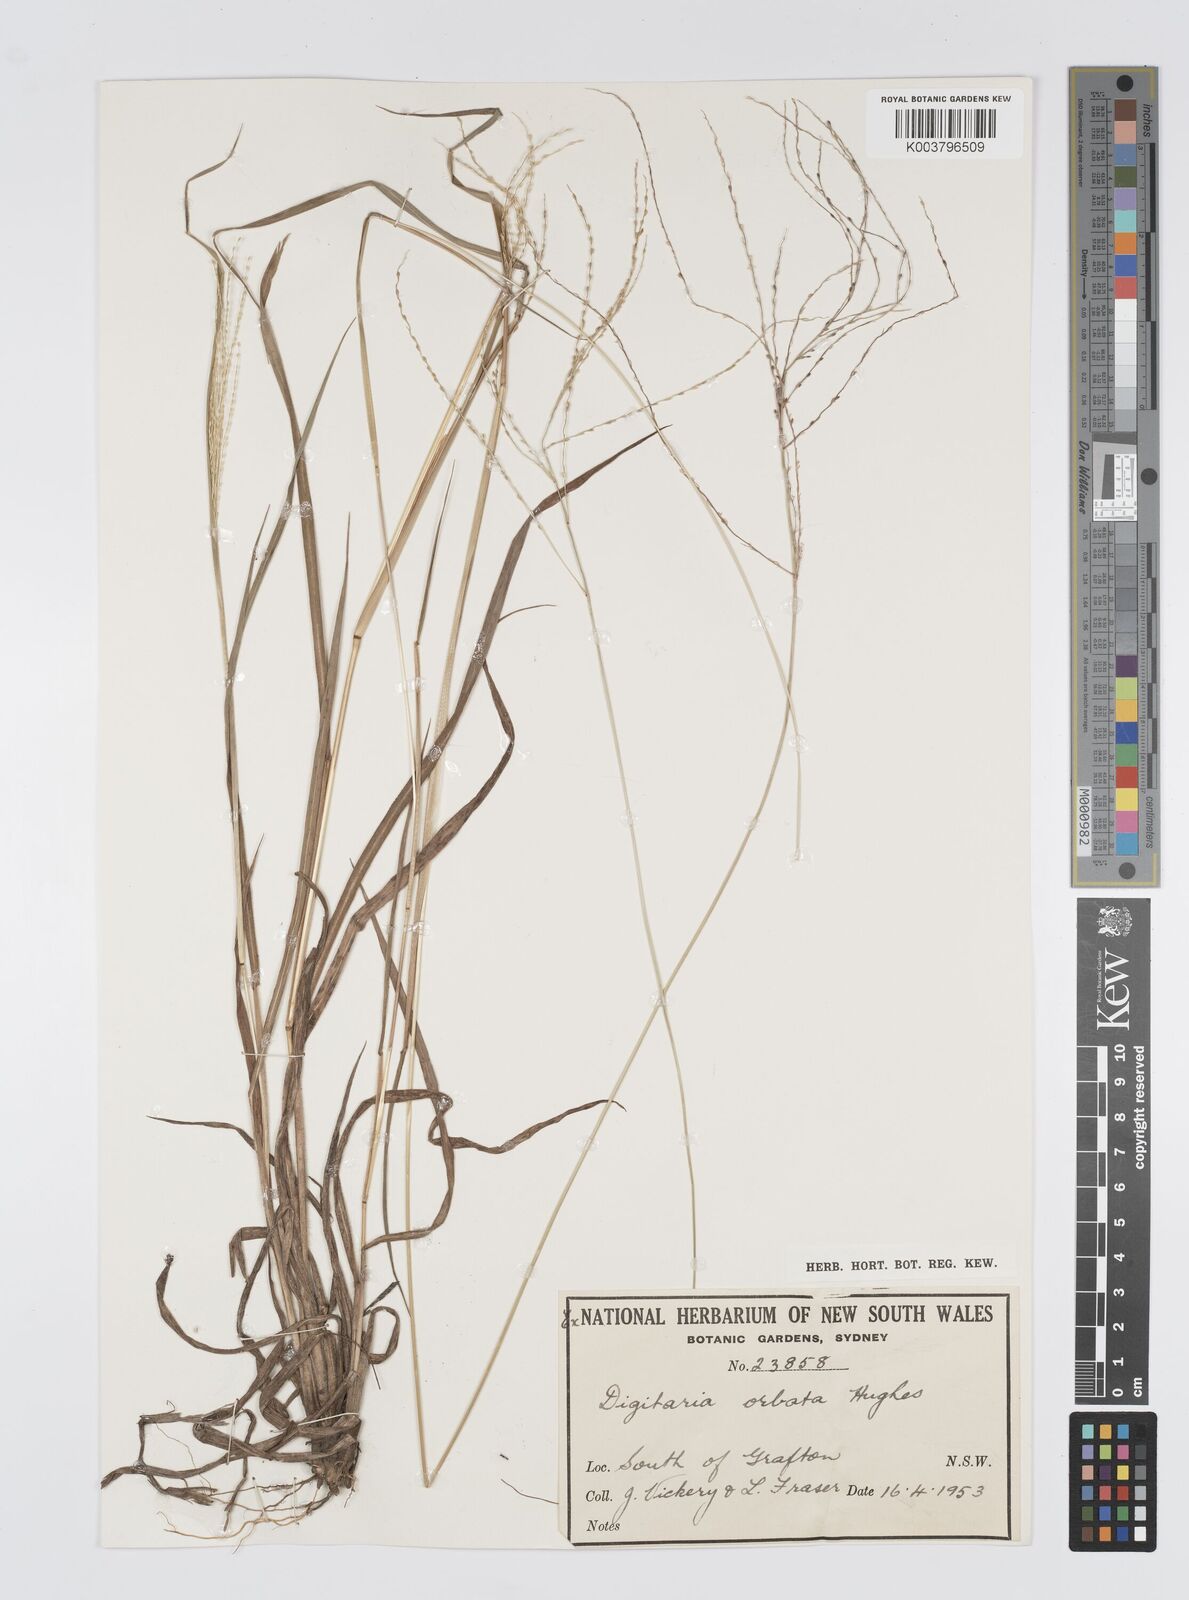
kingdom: Plantae
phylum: Tracheophyta
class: Liliopsida
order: Poales
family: Poaceae
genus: Digitaria
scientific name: Digitaria orbata
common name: Crabgrass
